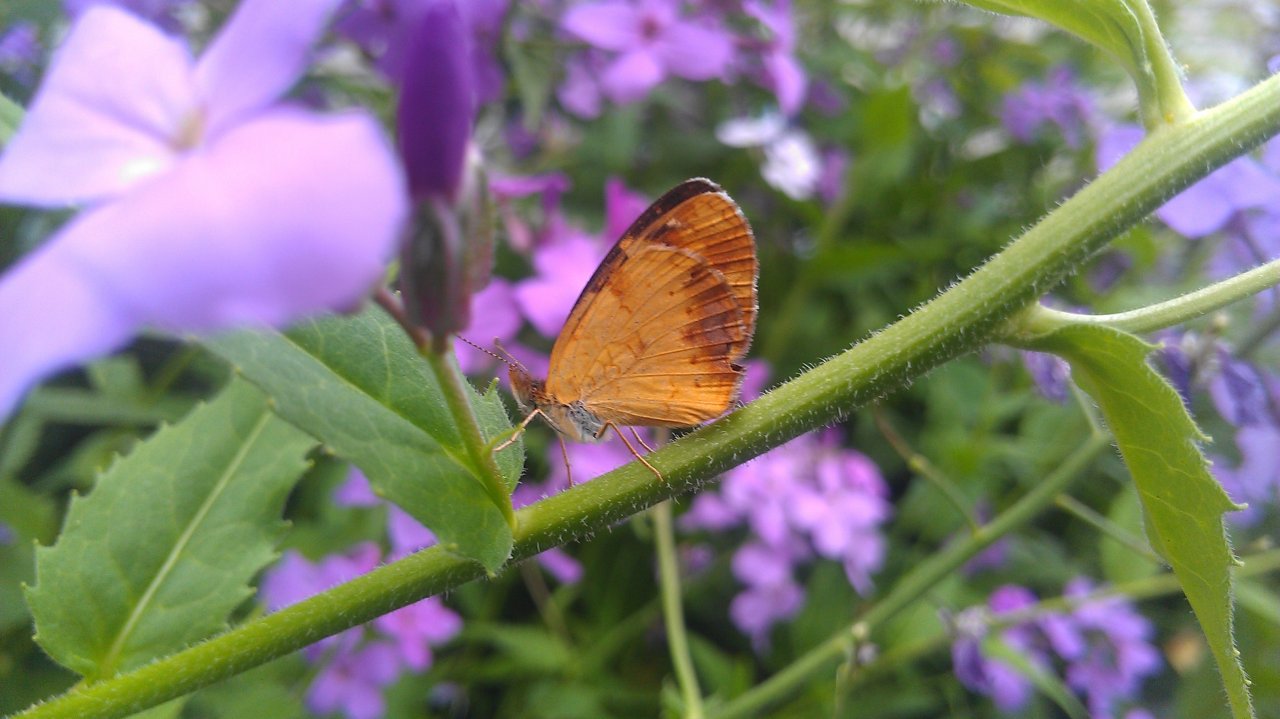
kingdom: Animalia
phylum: Arthropoda
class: Insecta
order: Lepidoptera
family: Nymphalidae
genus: Phyciodes
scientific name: Phyciodes tharos
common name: Northern Crescent
